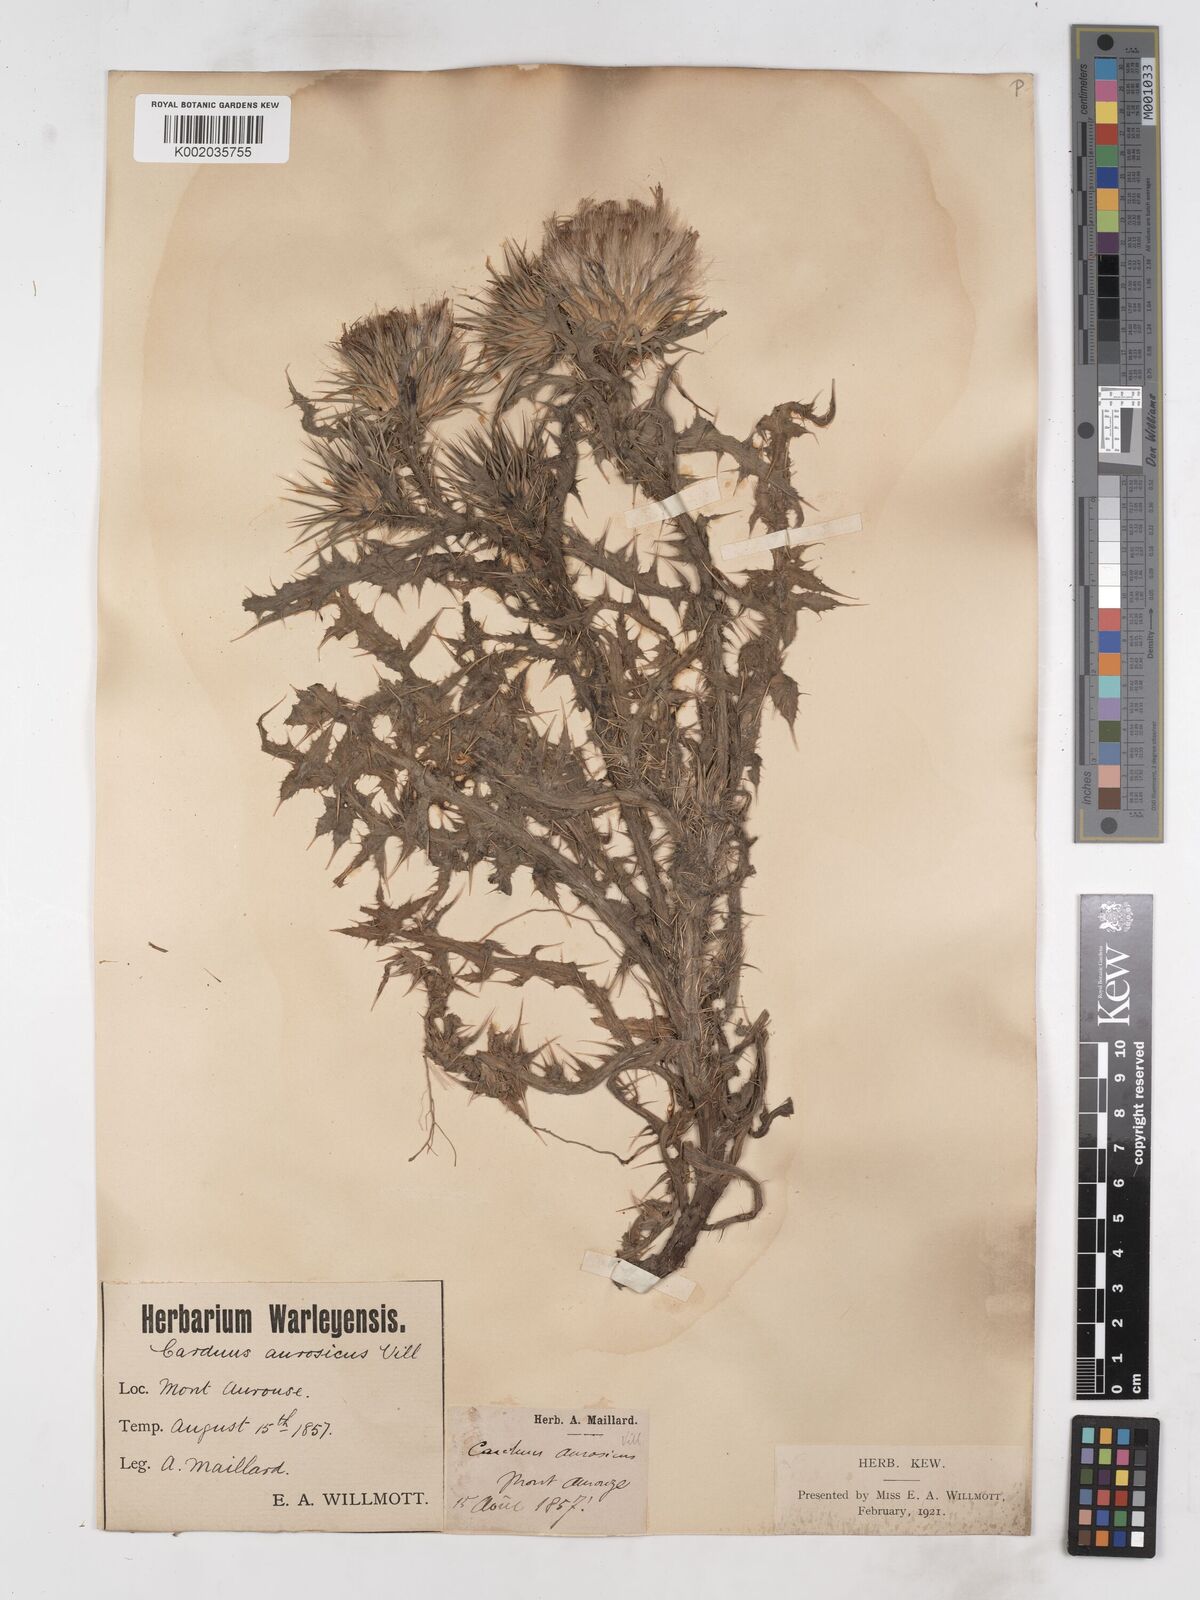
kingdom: Plantae
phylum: Tracheophyta
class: Magnoliopsida
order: Asterales
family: Asteraceae
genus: Carduus
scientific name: Carduus aurosicus
